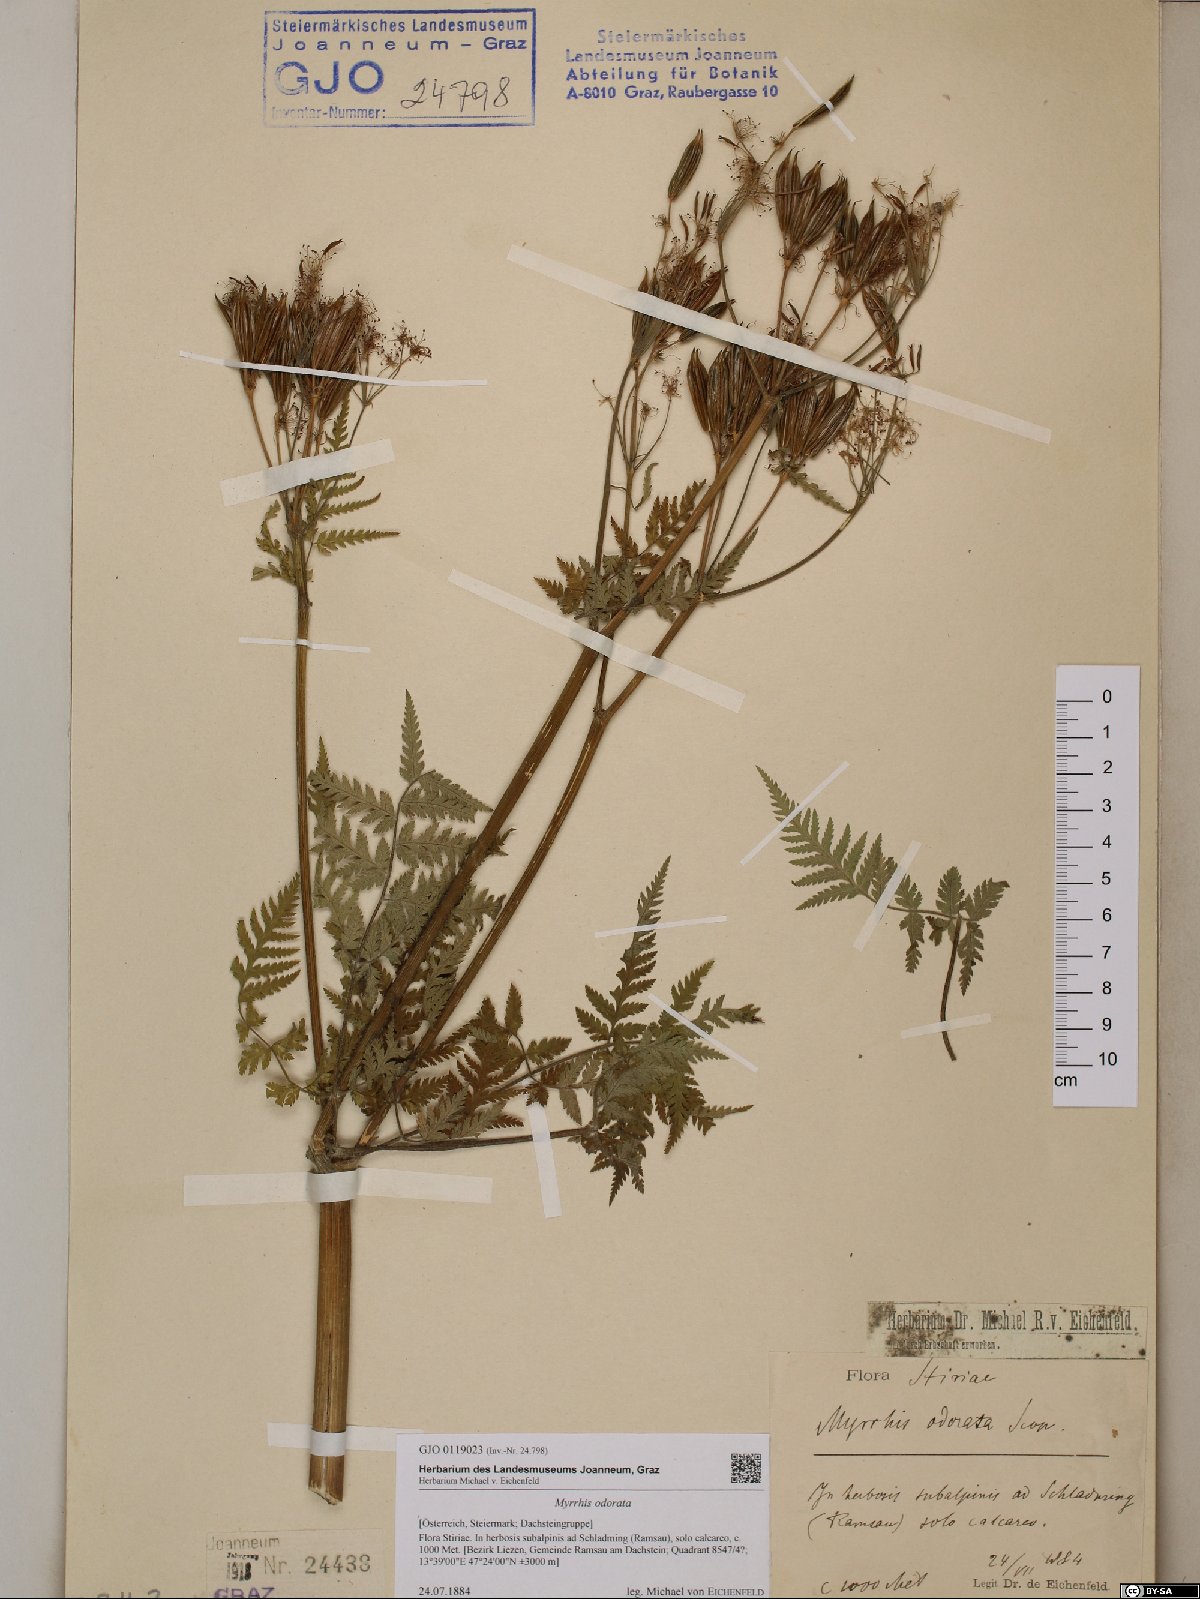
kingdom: Plantae
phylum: Tracheophyta
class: Magnoliopsida
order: Apiales
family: Apiaceae
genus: Myrrhis
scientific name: Myrrhis odorata
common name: Sweet cicely
